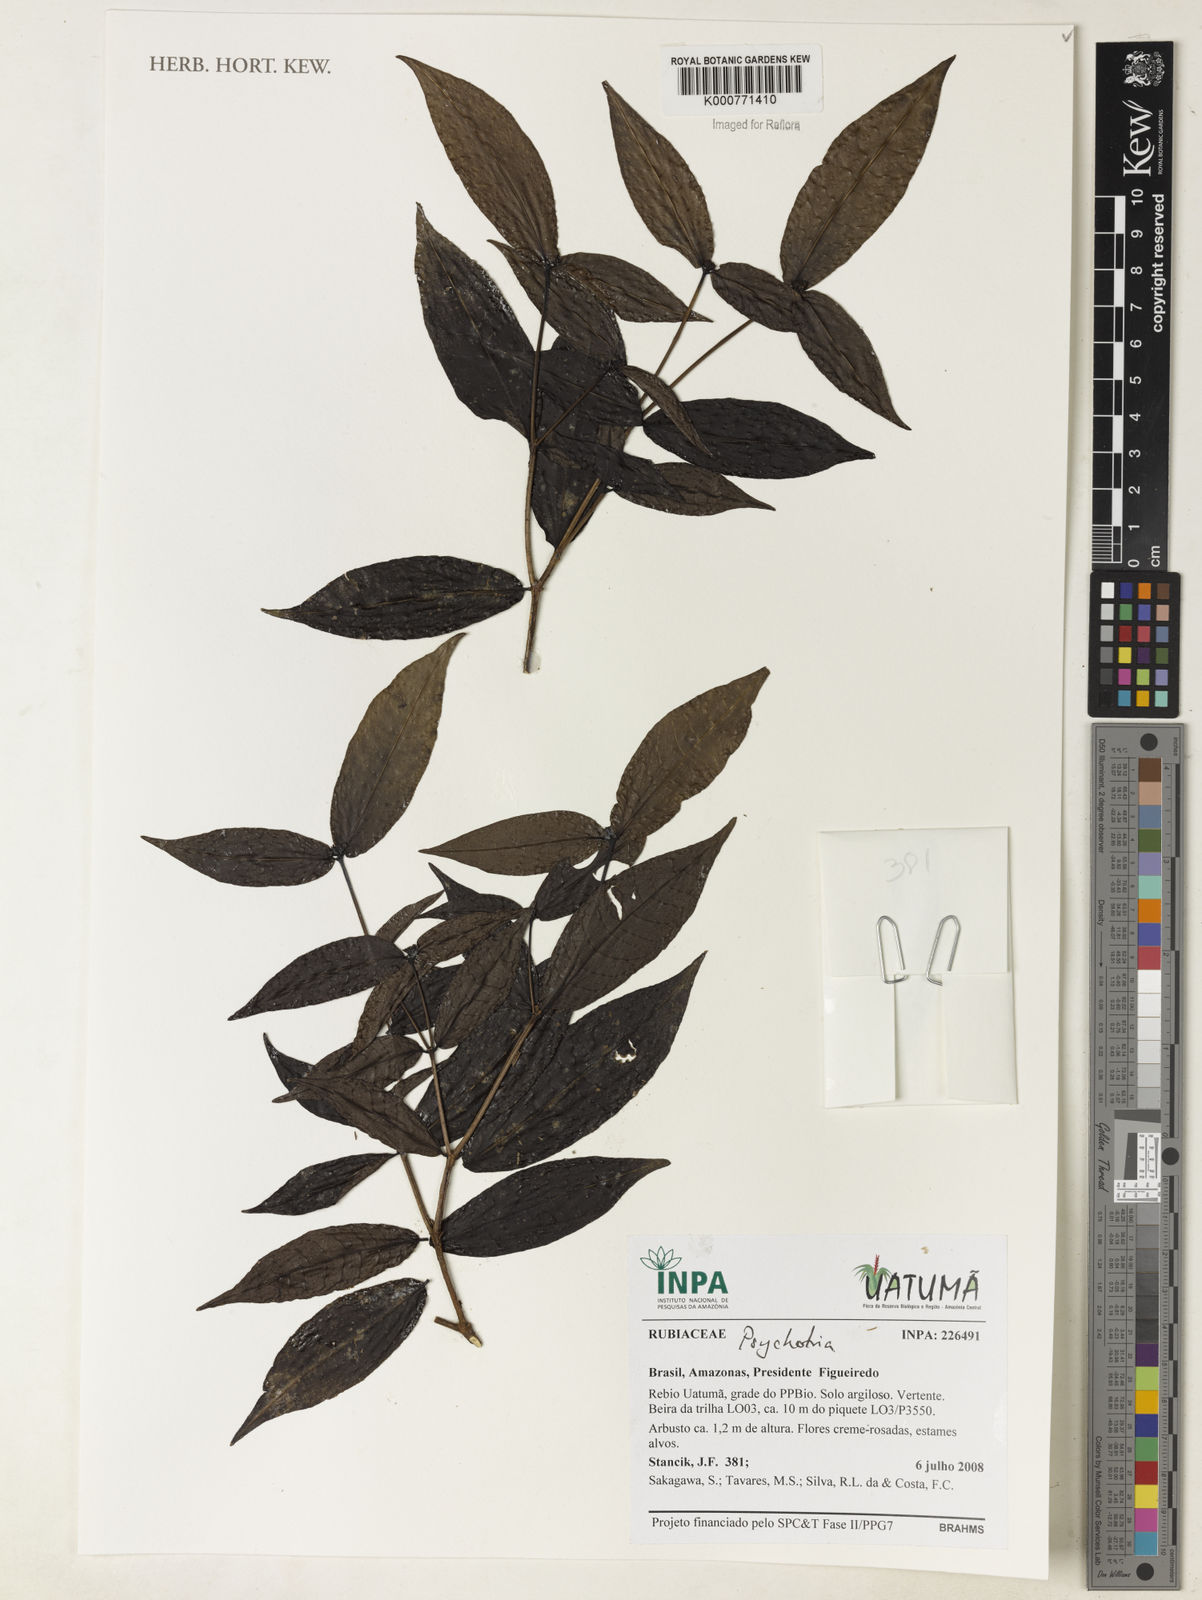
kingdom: Plantae
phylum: Tracheophyta
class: Magnoliopsida
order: Gentianales
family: Rubiaceae
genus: Psychotria
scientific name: Psychotria
